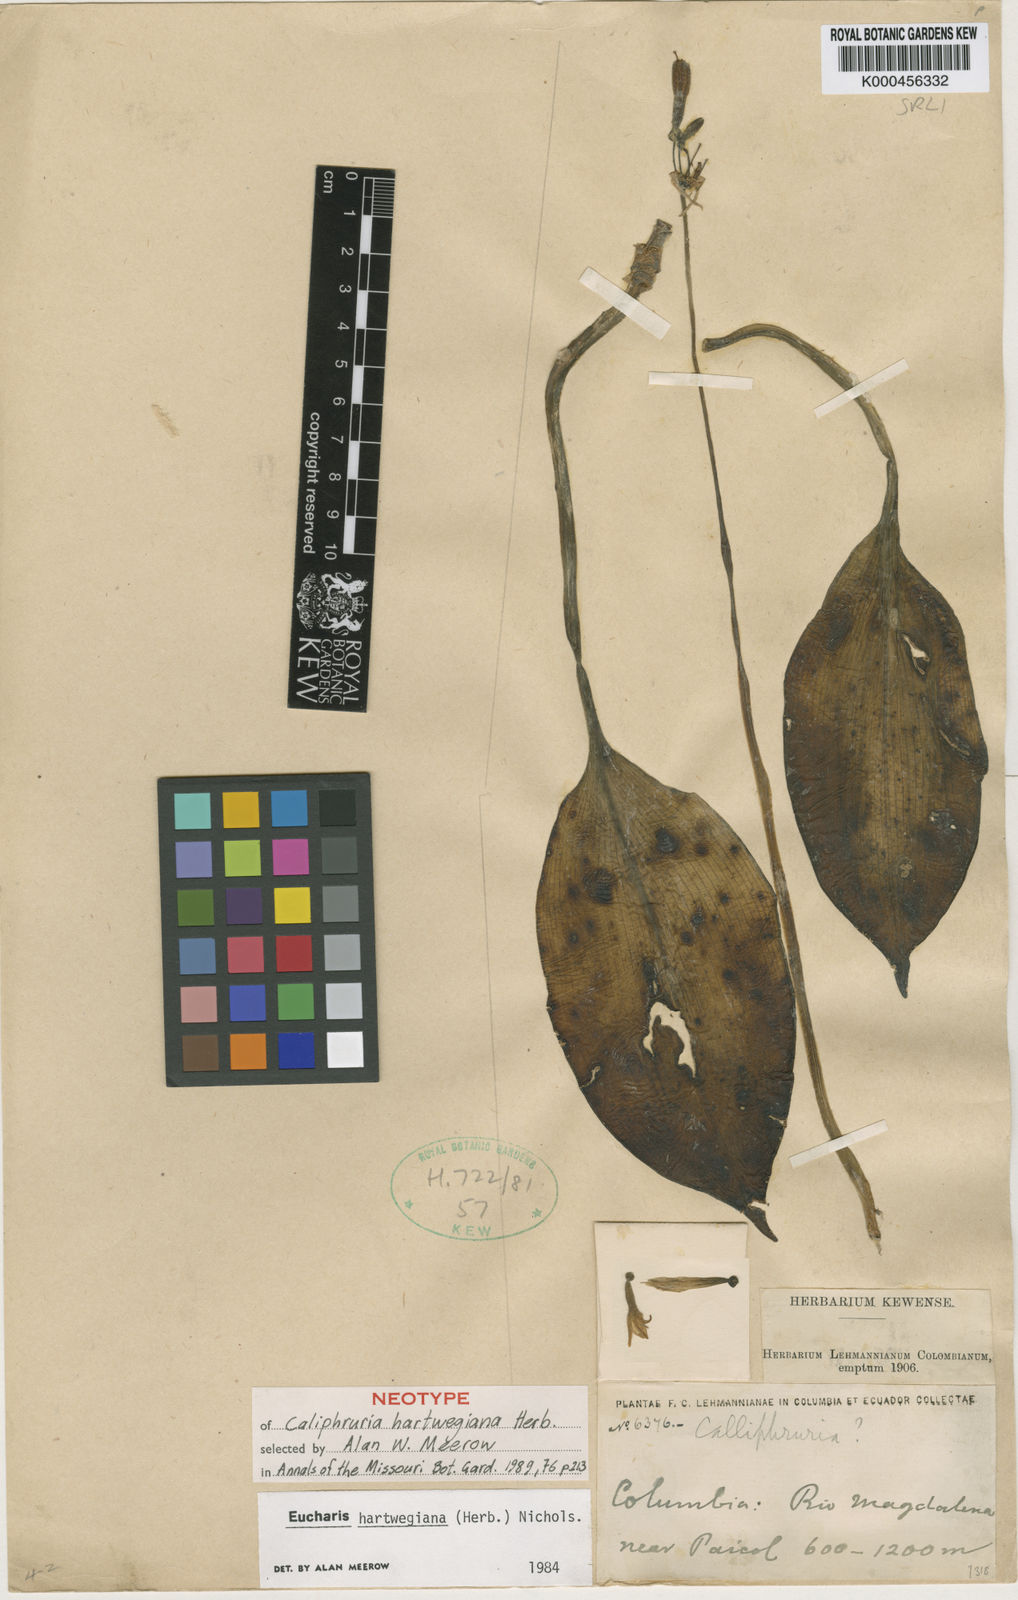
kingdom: Plantae
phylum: Tracheophyta
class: Liliopsida
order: Asparagales
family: Amaryllidaceae
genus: Urceolina
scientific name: Urceolina hartwegiana
